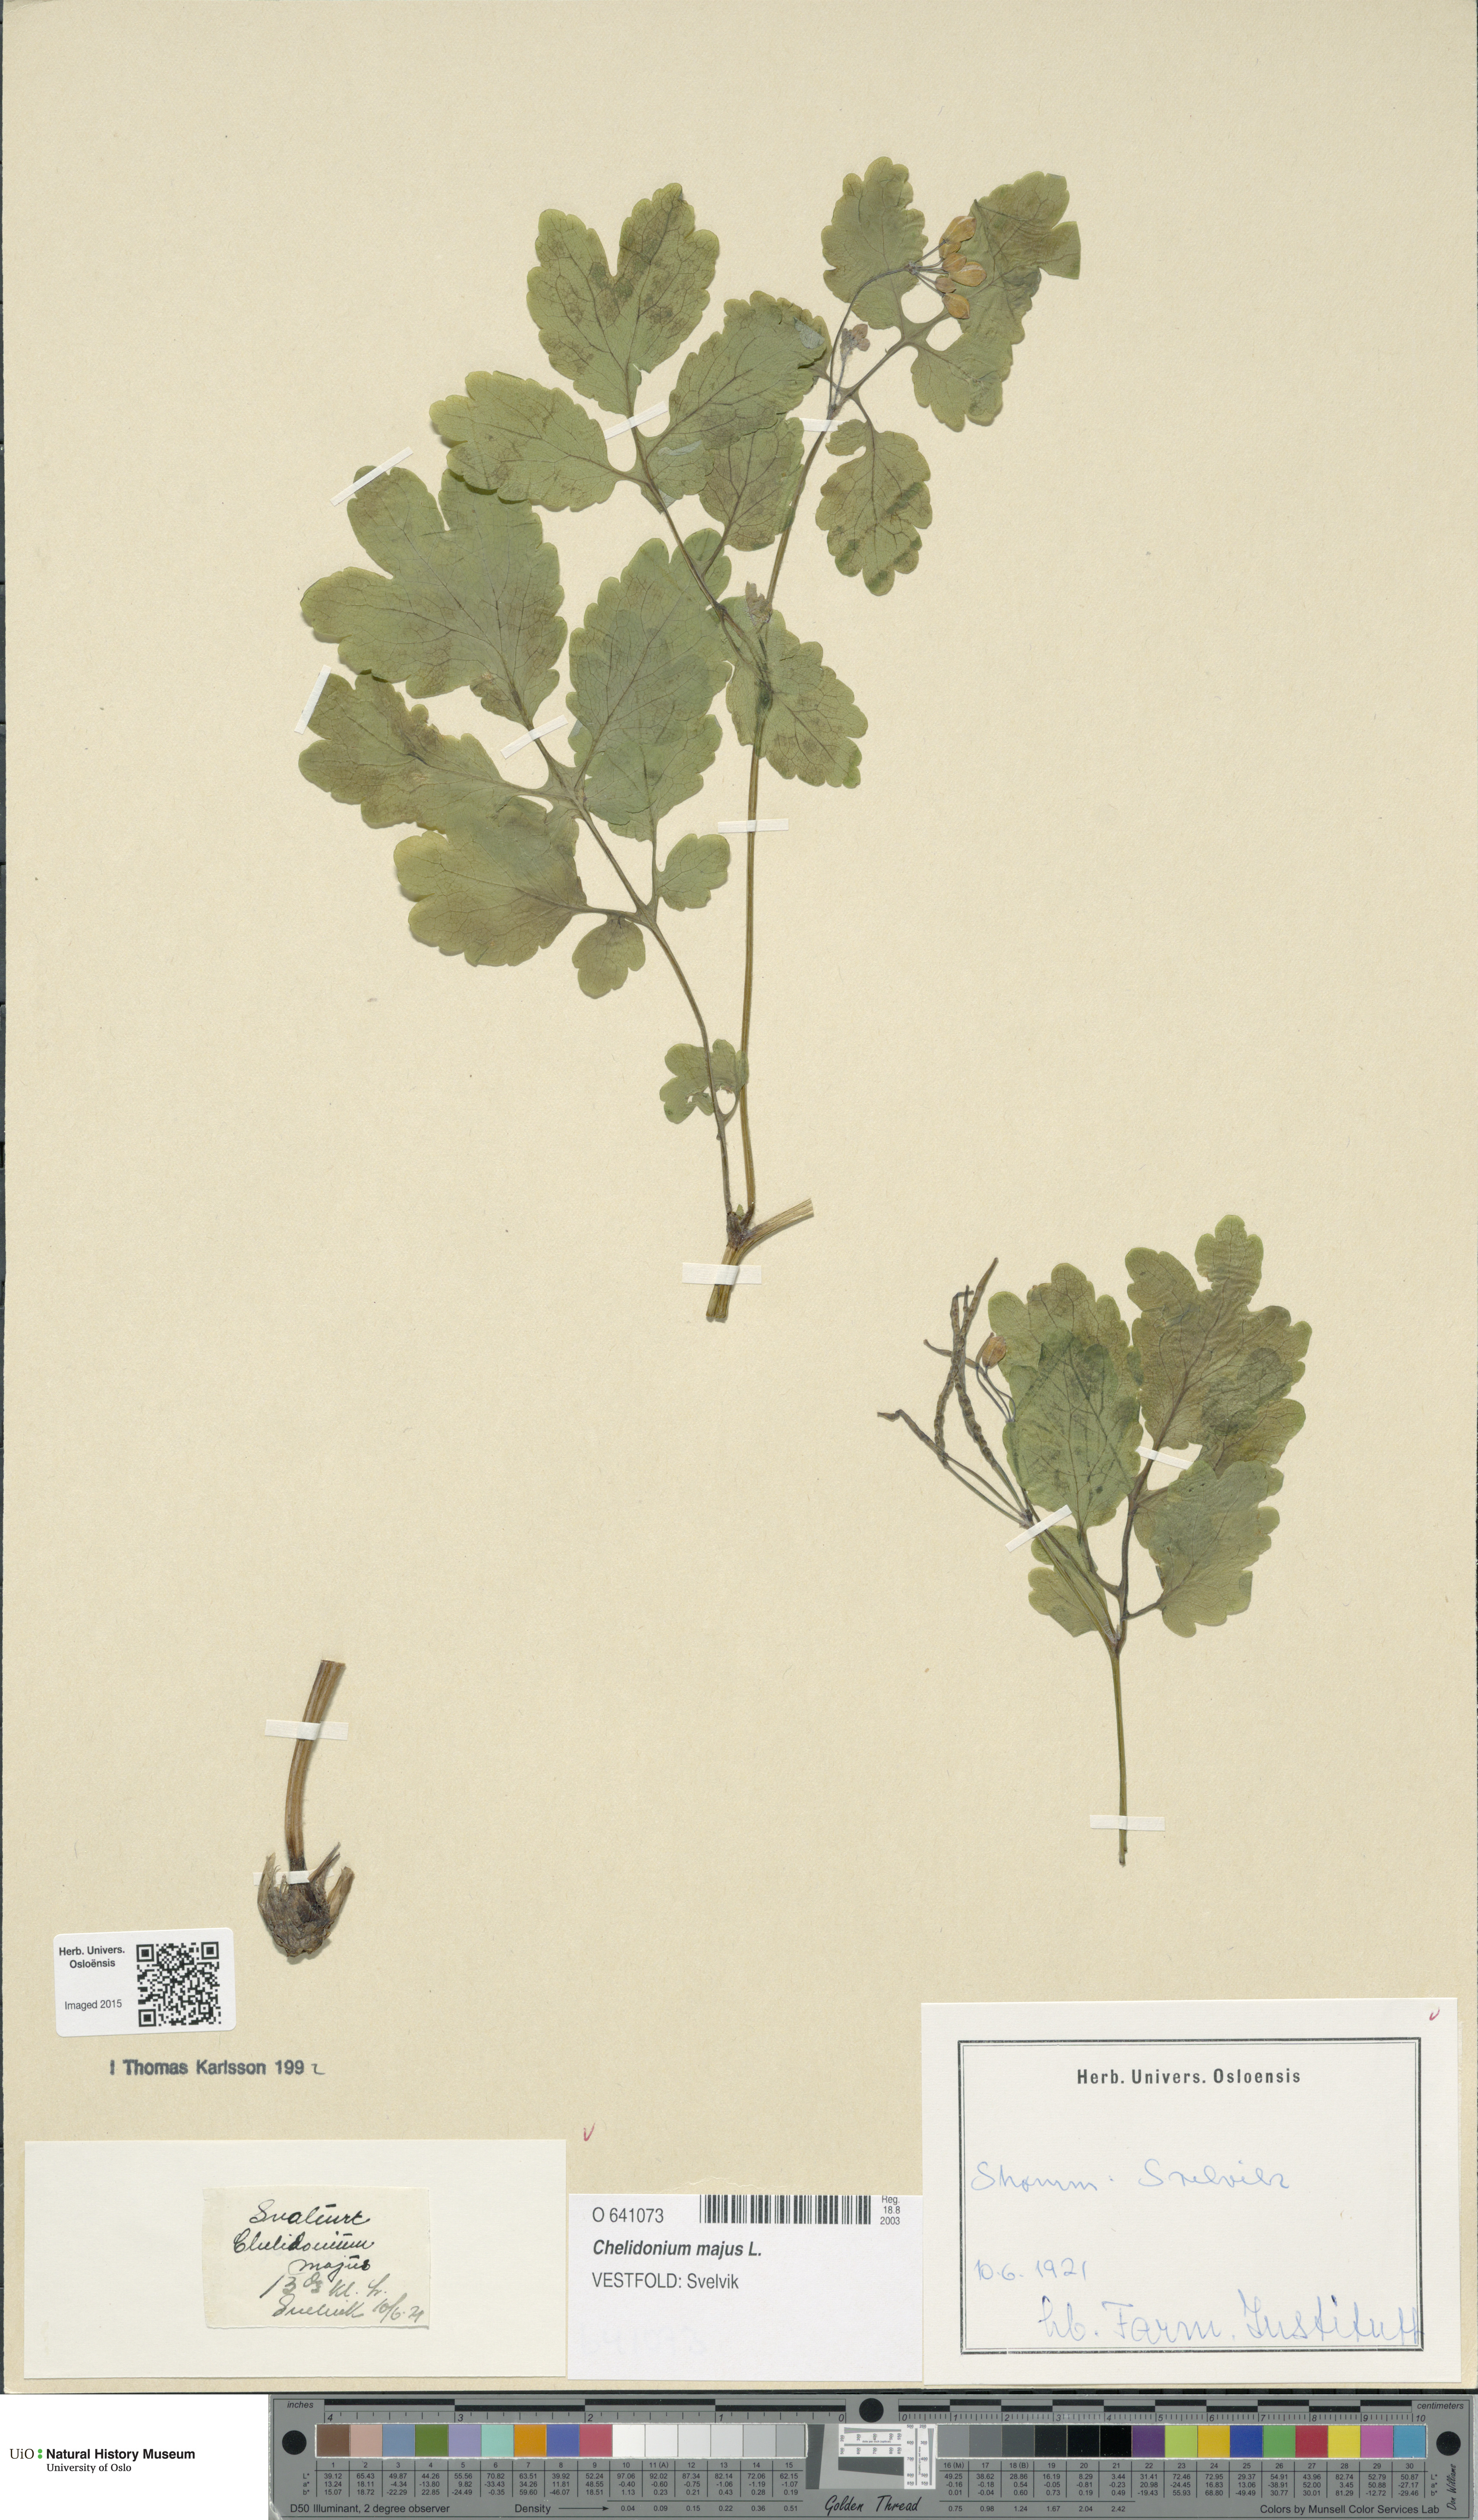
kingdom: Plantae
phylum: Tracheophyta
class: Magnoliopsida
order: Ranunculales
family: Papaveraceae
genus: Chelidonium
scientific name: Chelidonium majus
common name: Greater celandine
